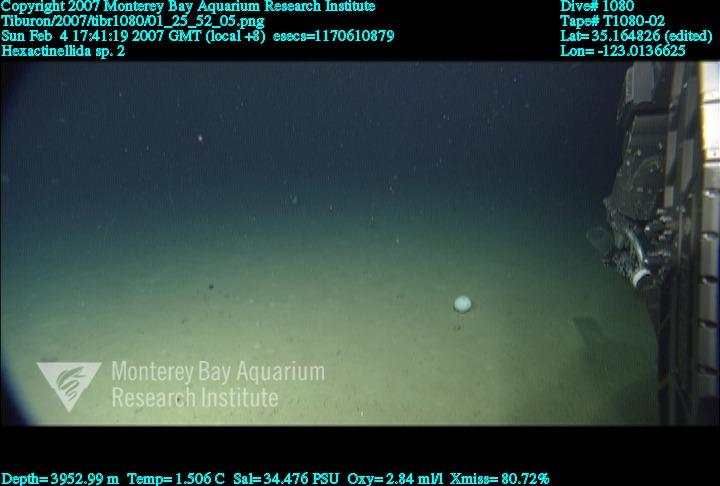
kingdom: Animalia
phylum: Porifera
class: Hexactinellida
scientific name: Hexactinellida
